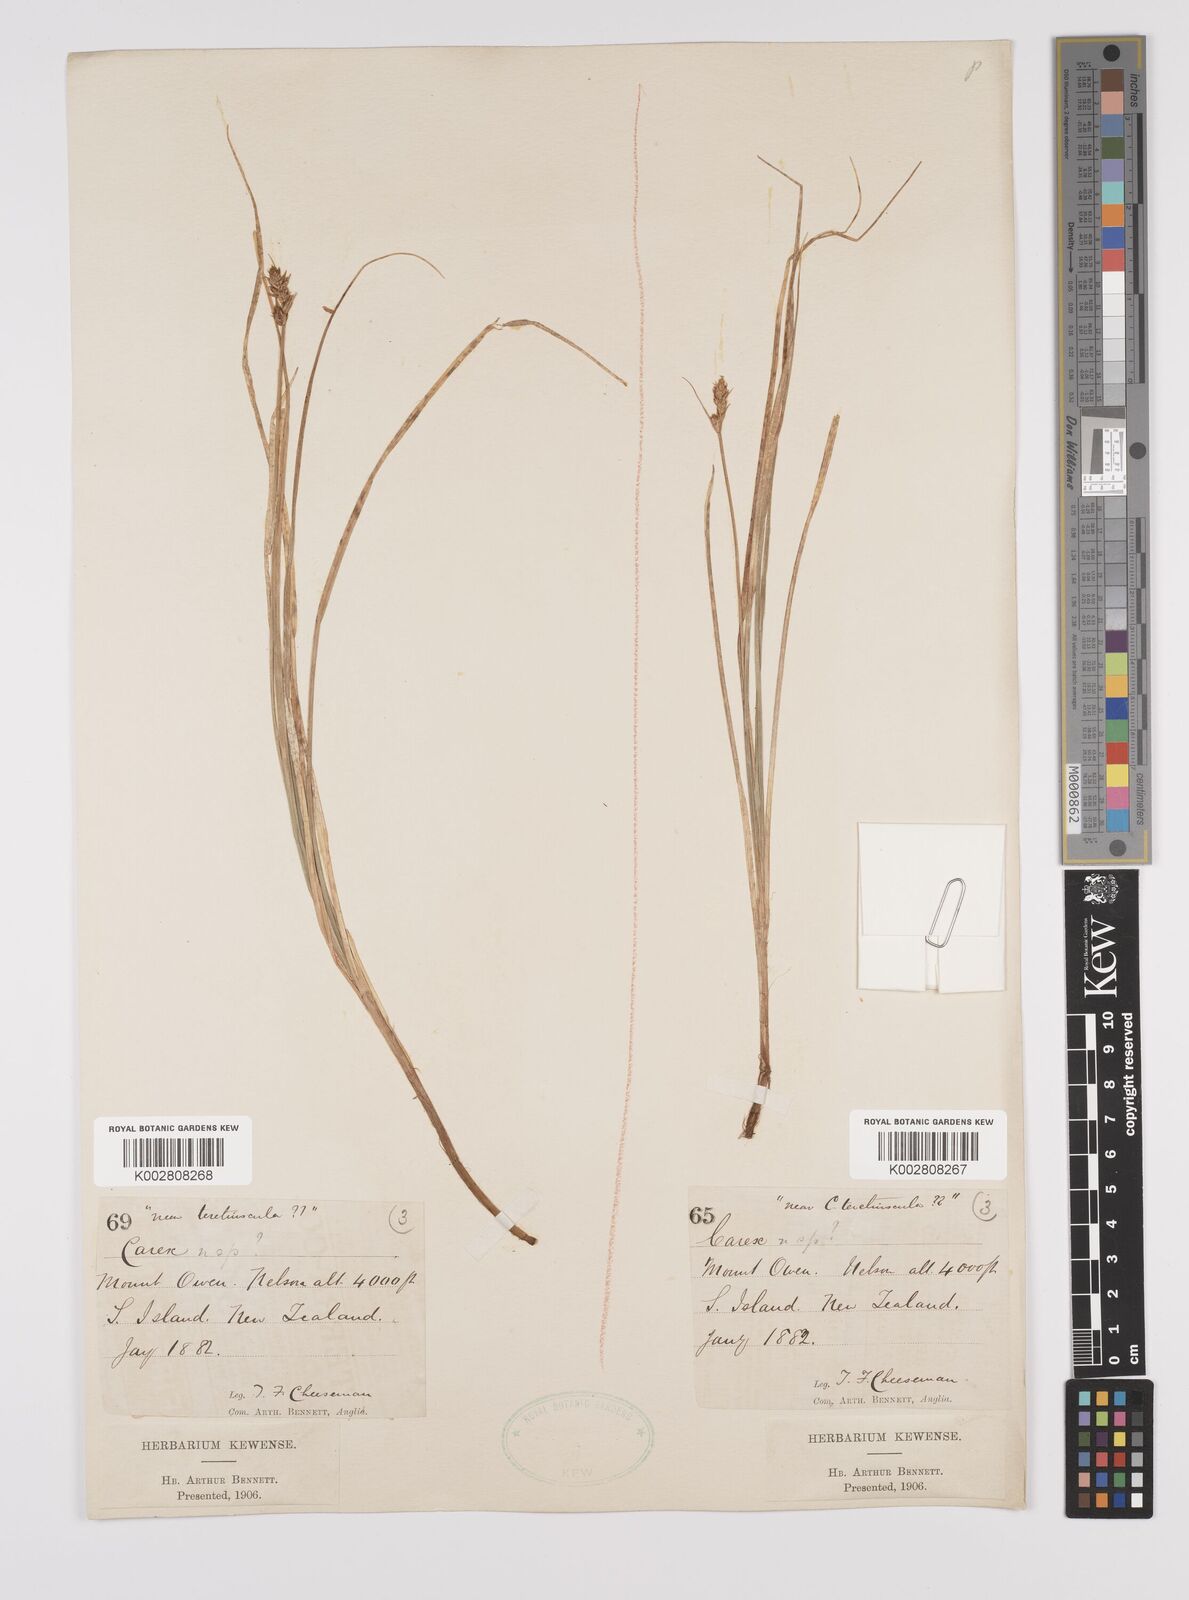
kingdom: Plantae
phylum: Tracheophyta
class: Liliopsida
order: Poales
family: Cyperaceae
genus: Carex
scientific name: Carex diandra
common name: Lesser tussock-sedge
